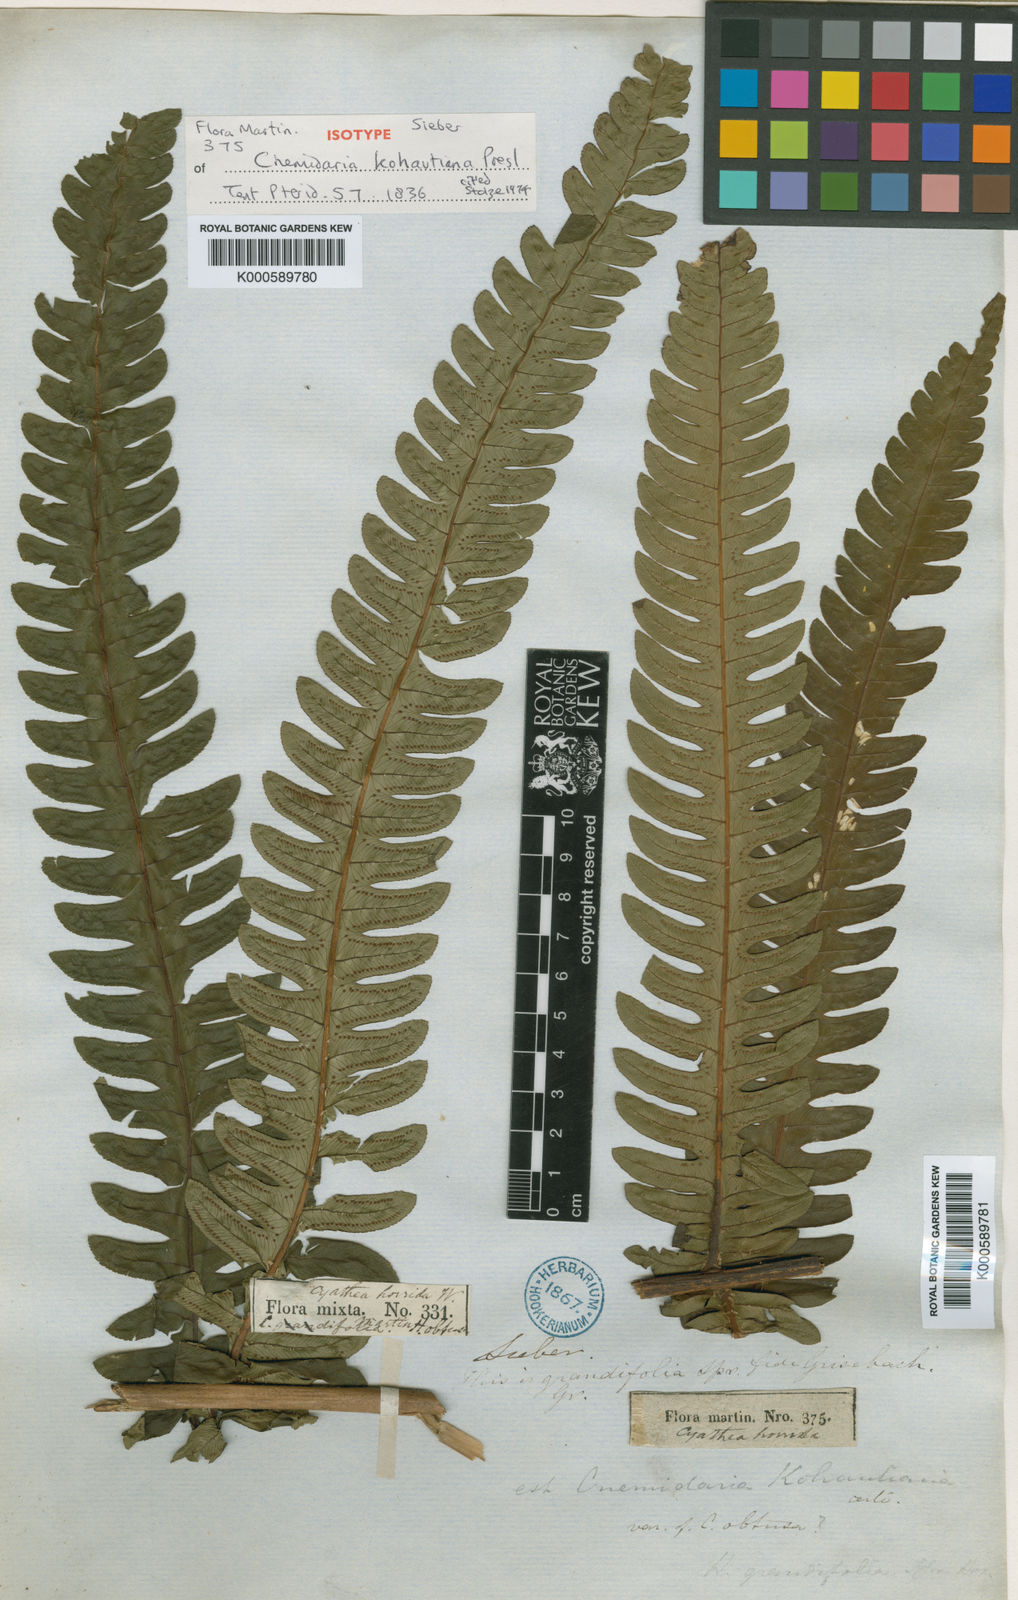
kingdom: Plantae
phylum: Tracheophyta
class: Polypodiopsida
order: Cyatheales
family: Cyatheaceae
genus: Cyathea
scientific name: Cyathea grandifolia
